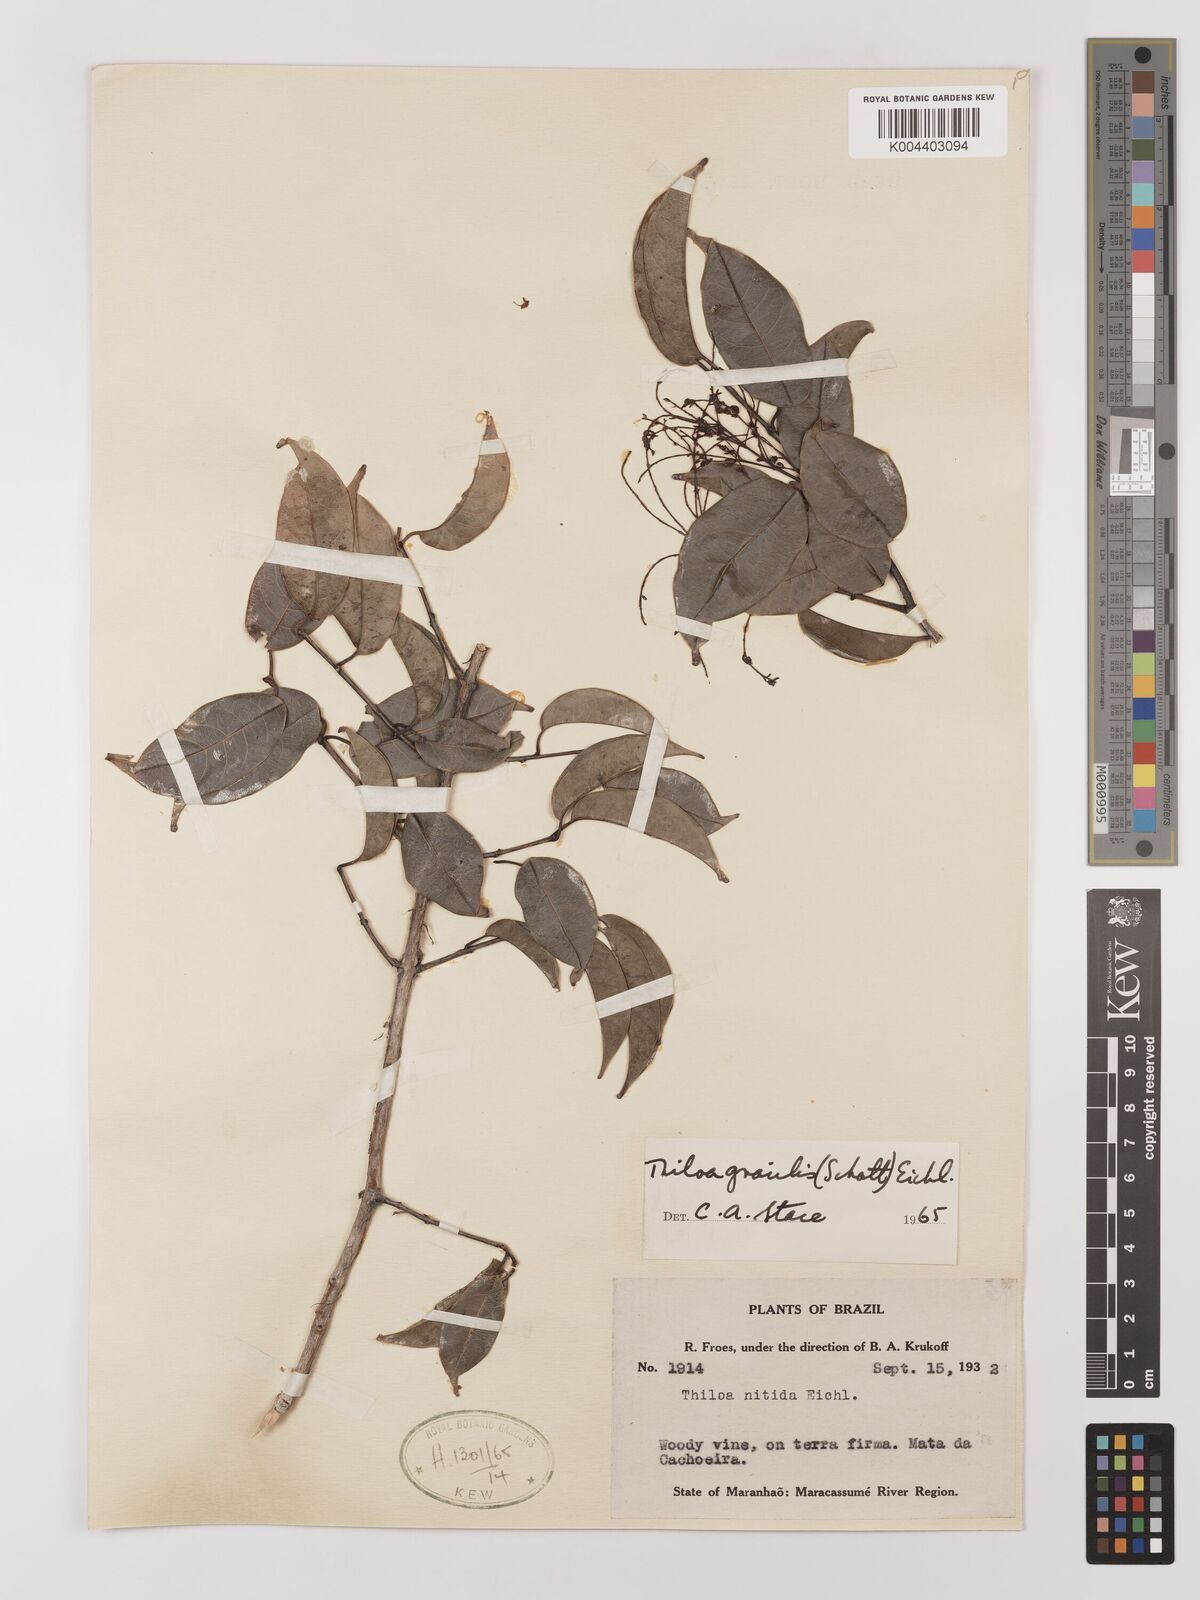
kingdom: Plantae
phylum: Tracheophyta
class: Magnoliopsida
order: Myrtales
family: Combretaceae
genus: Combretum
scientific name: Combretum gracile
